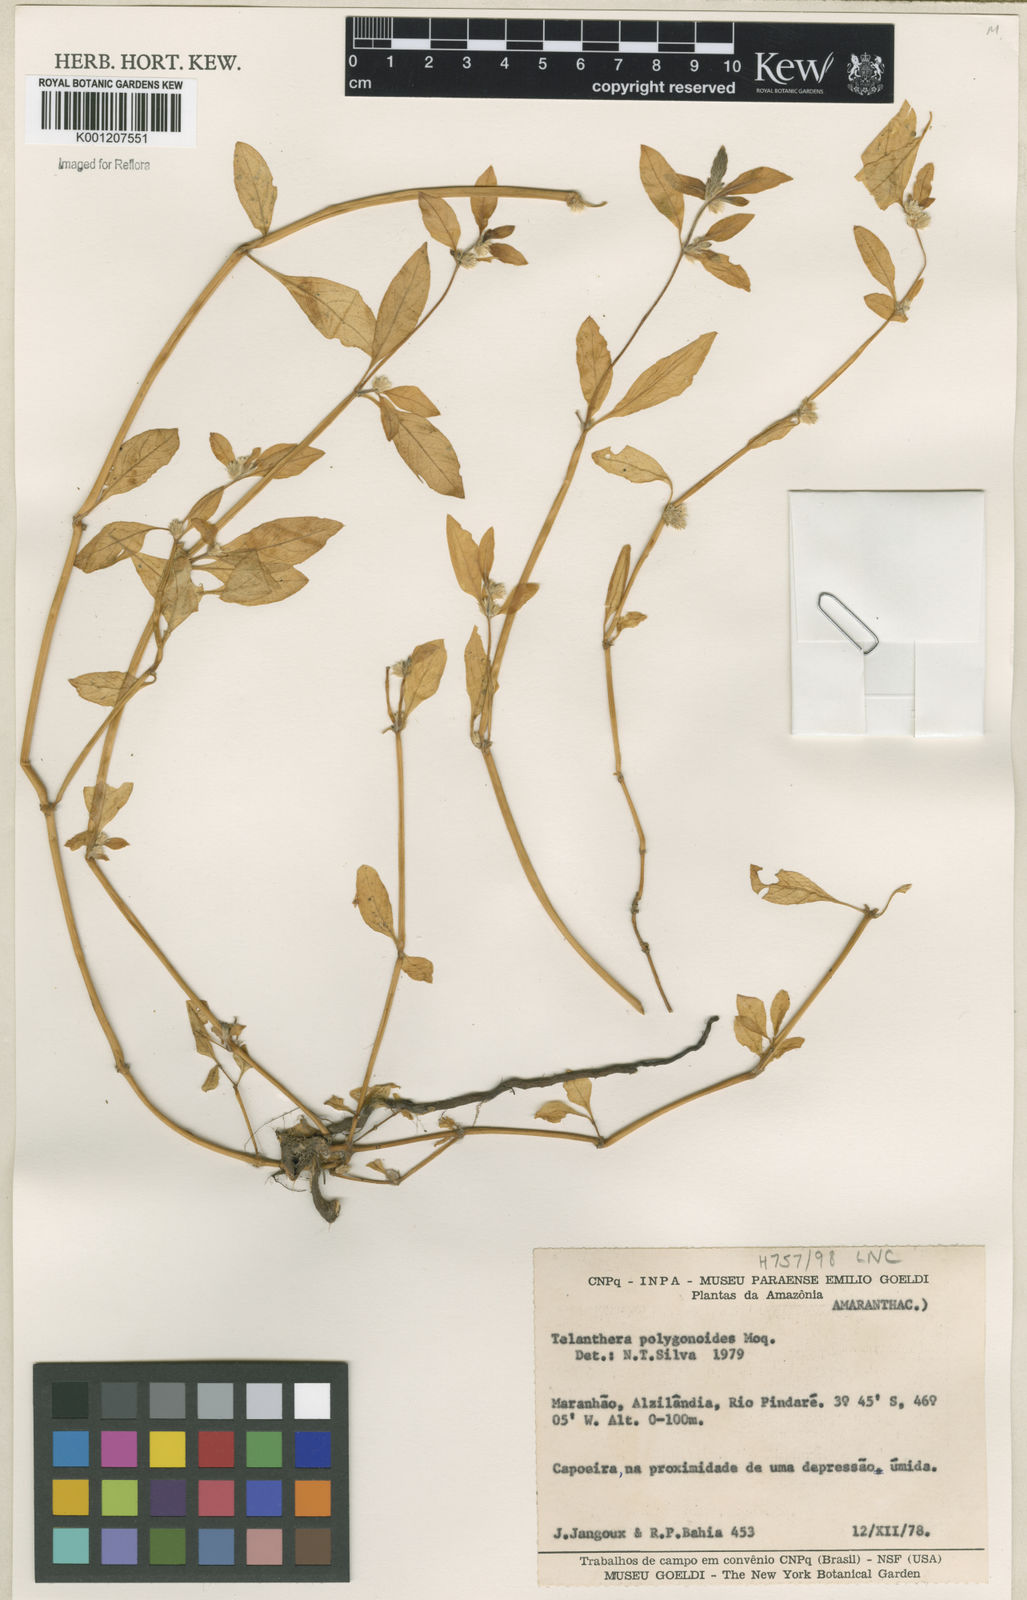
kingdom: Plantae
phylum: Tracheophyta
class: Magnoliopsida
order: Caryophyllales
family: Amaranthaceae
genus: Alternanthera
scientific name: Alternanthera
